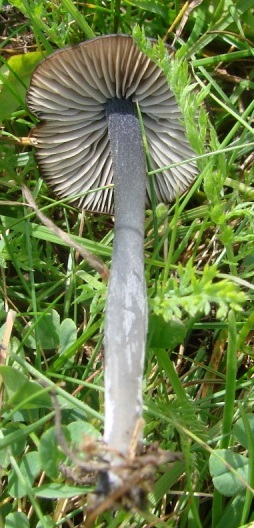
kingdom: Fungi
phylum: Basidiomycota
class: Agaricomycetes
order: Agaricales
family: Entolomataceae
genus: Entoloma
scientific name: Entoloma porphyrogriseum
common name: porfyrgrå rødblad
